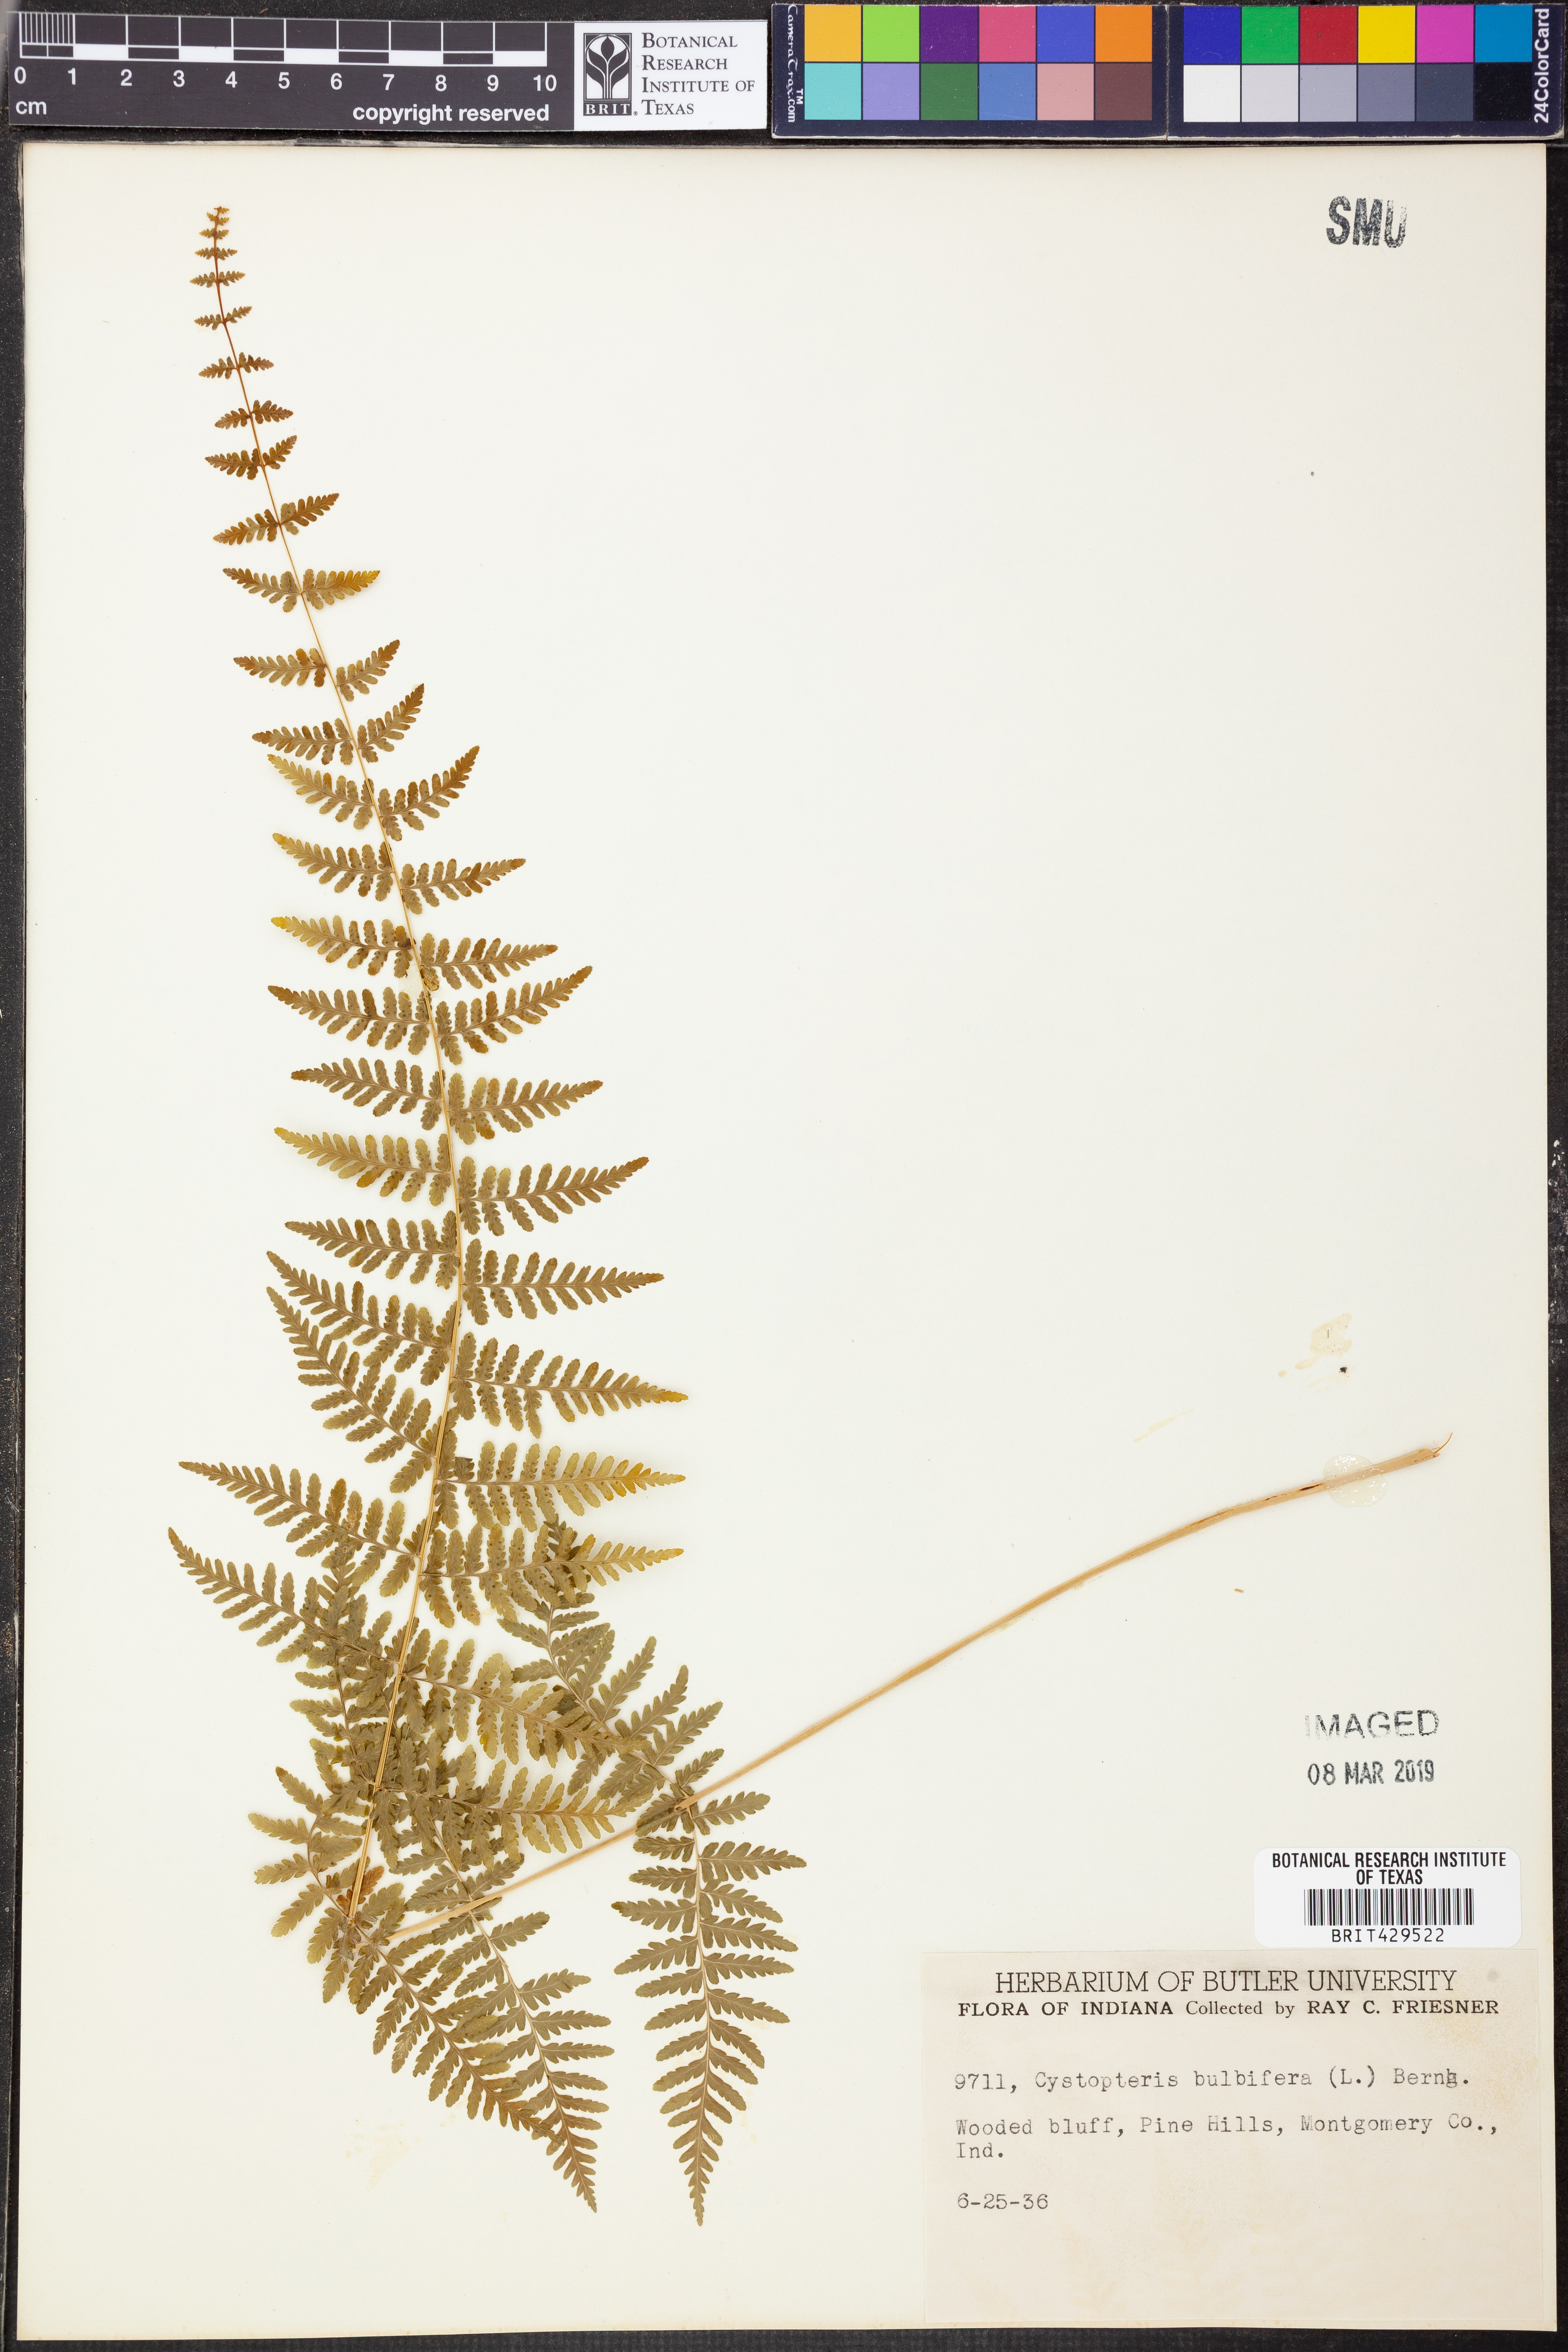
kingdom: Plantae
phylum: Tracheophyta
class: Polypodiopsida
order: Polypodiales
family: Cystopteridaceae
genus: Cystopteris
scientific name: Cystopteris bulbifera
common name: Bulblet bladder fern
